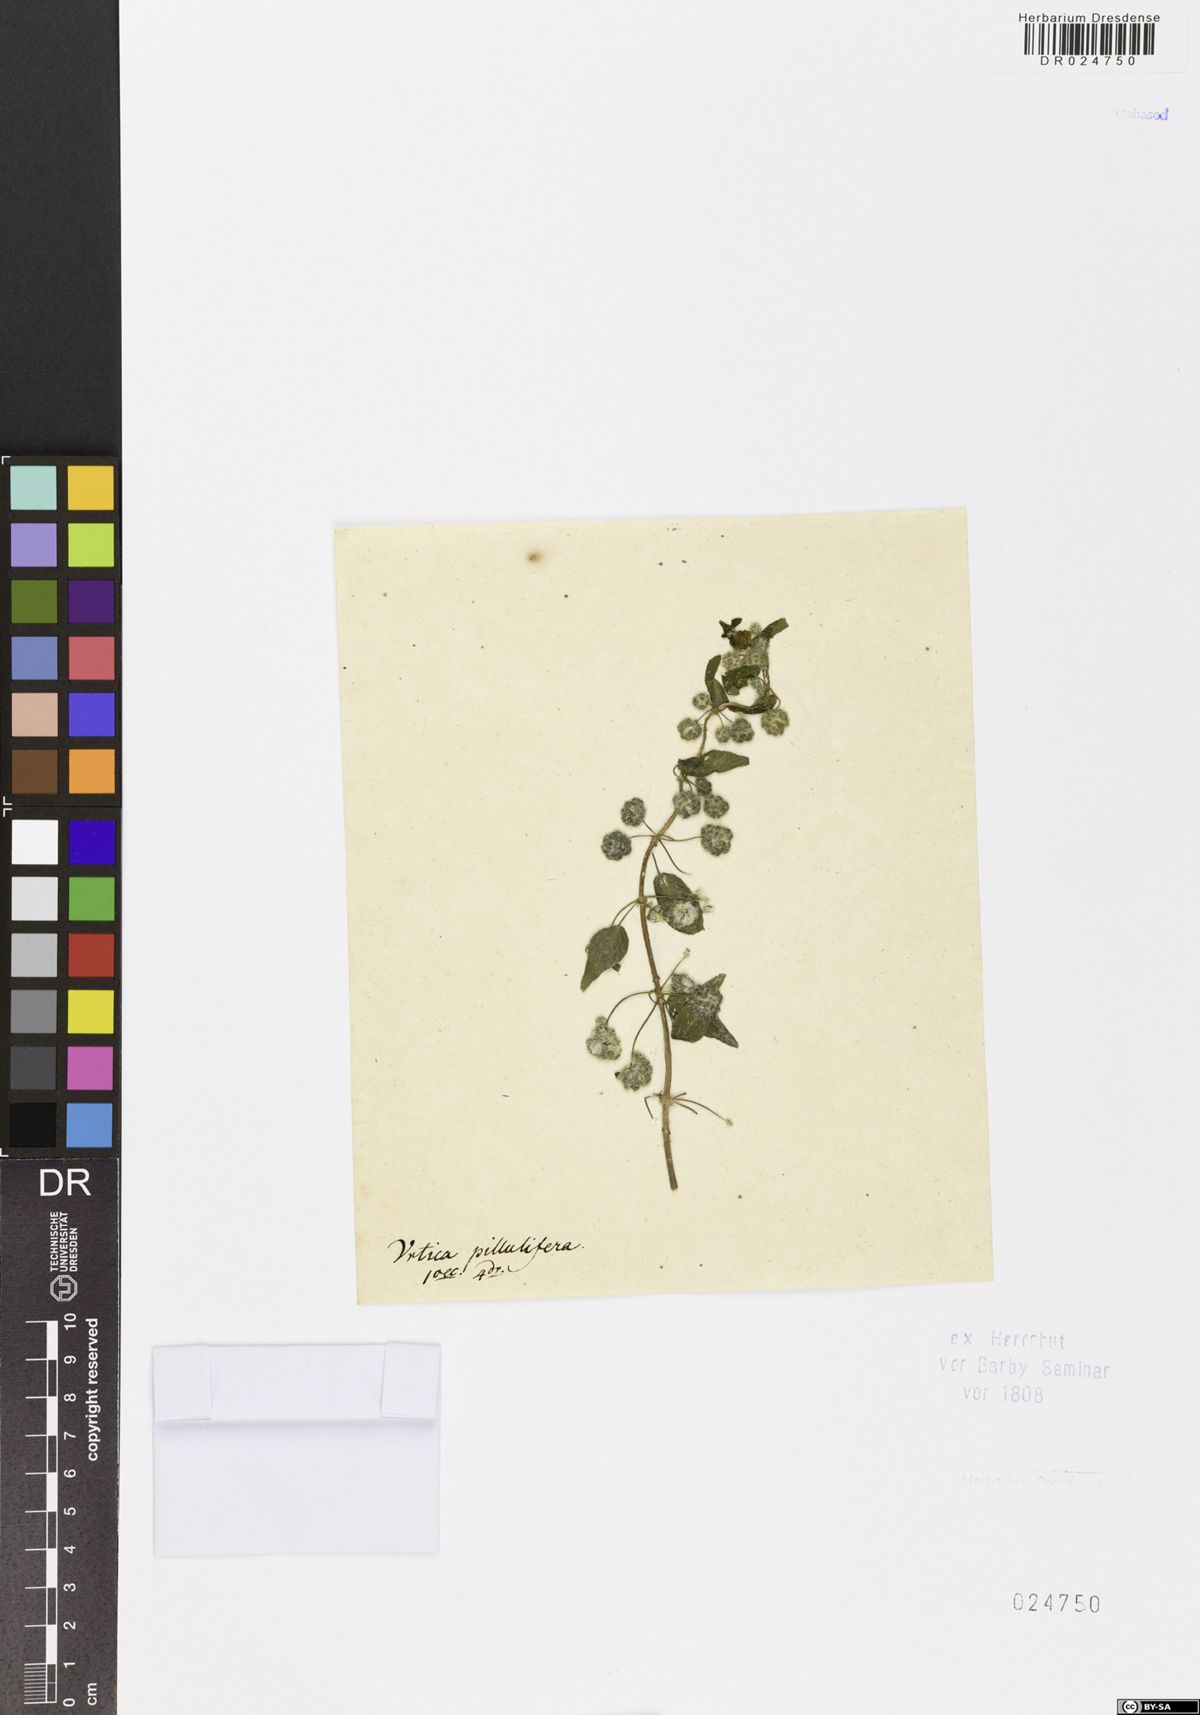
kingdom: Plantae
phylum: Tracheophyta
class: Magnoliopsida
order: Rosales
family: Urticaceae
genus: Urtica
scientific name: Urtica pilulifera
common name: Roman nettle
